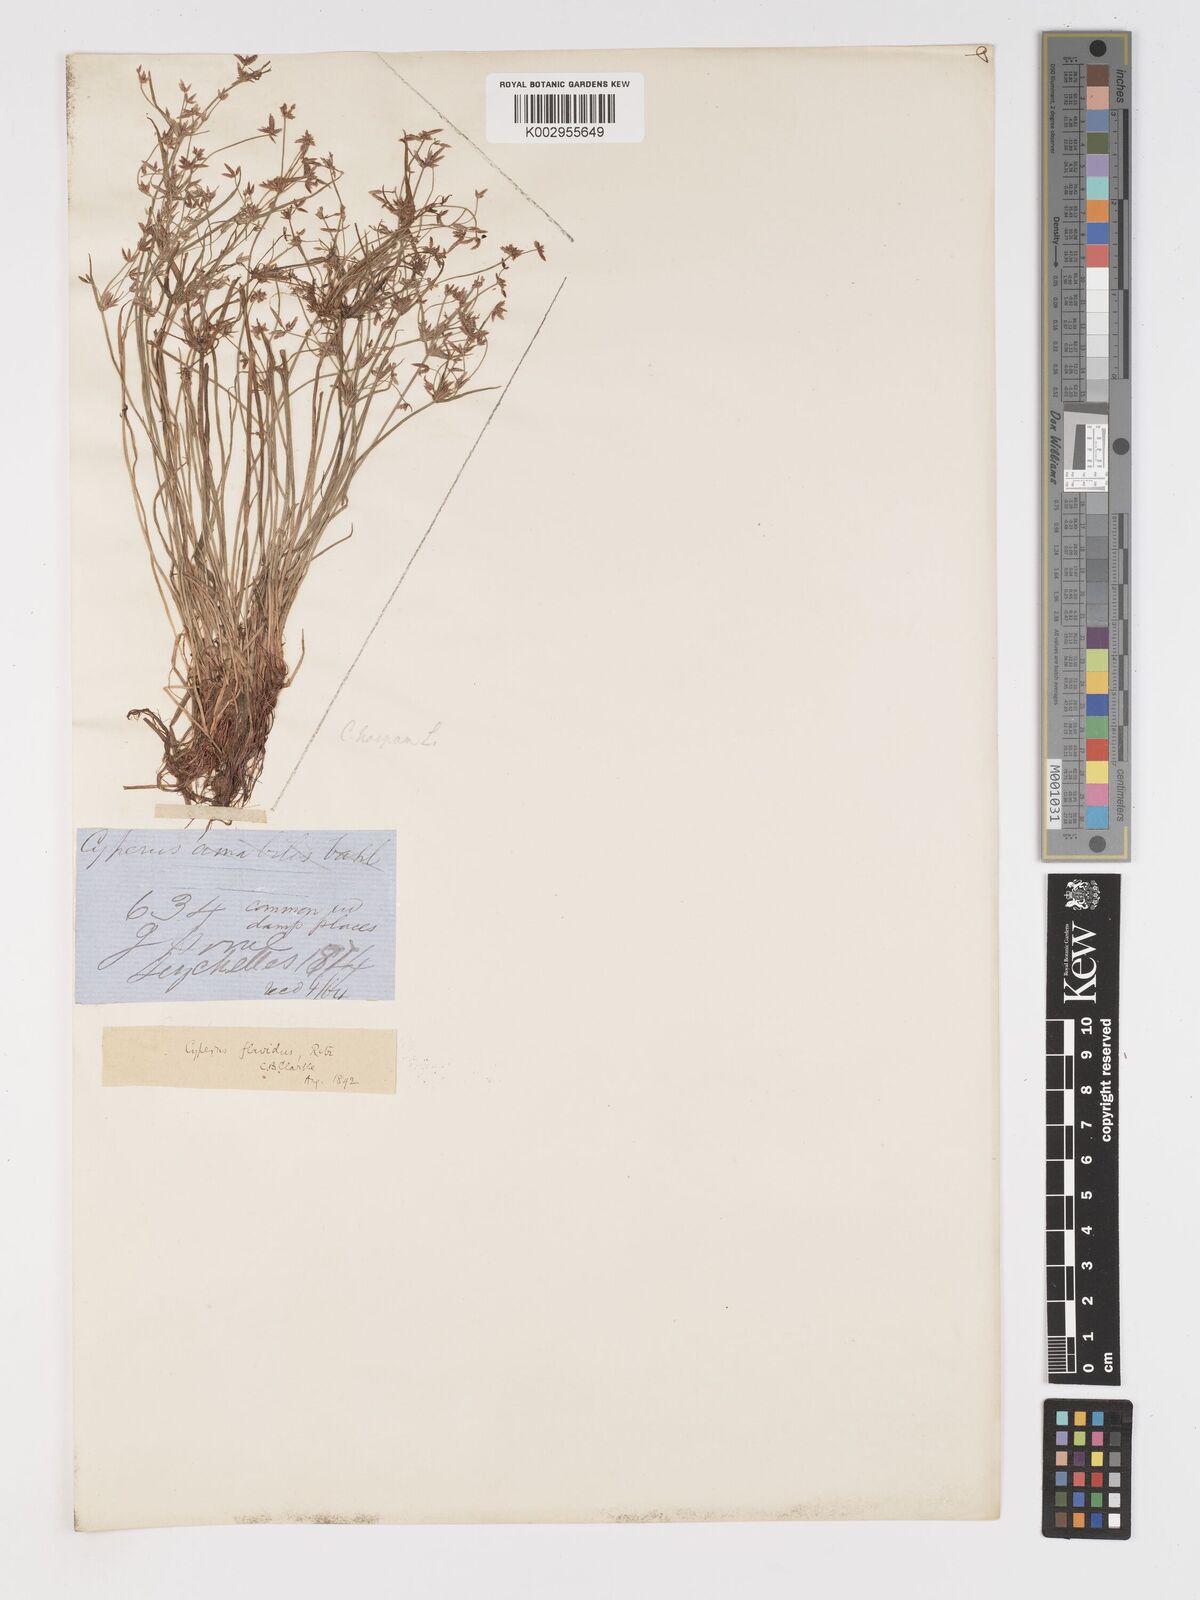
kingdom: Plantae
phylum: Tracheophyta
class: Liliopsida
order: Poales
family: Cyperaceae
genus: Cyperus
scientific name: Cyperus haspan
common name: Haspan flatsedge
